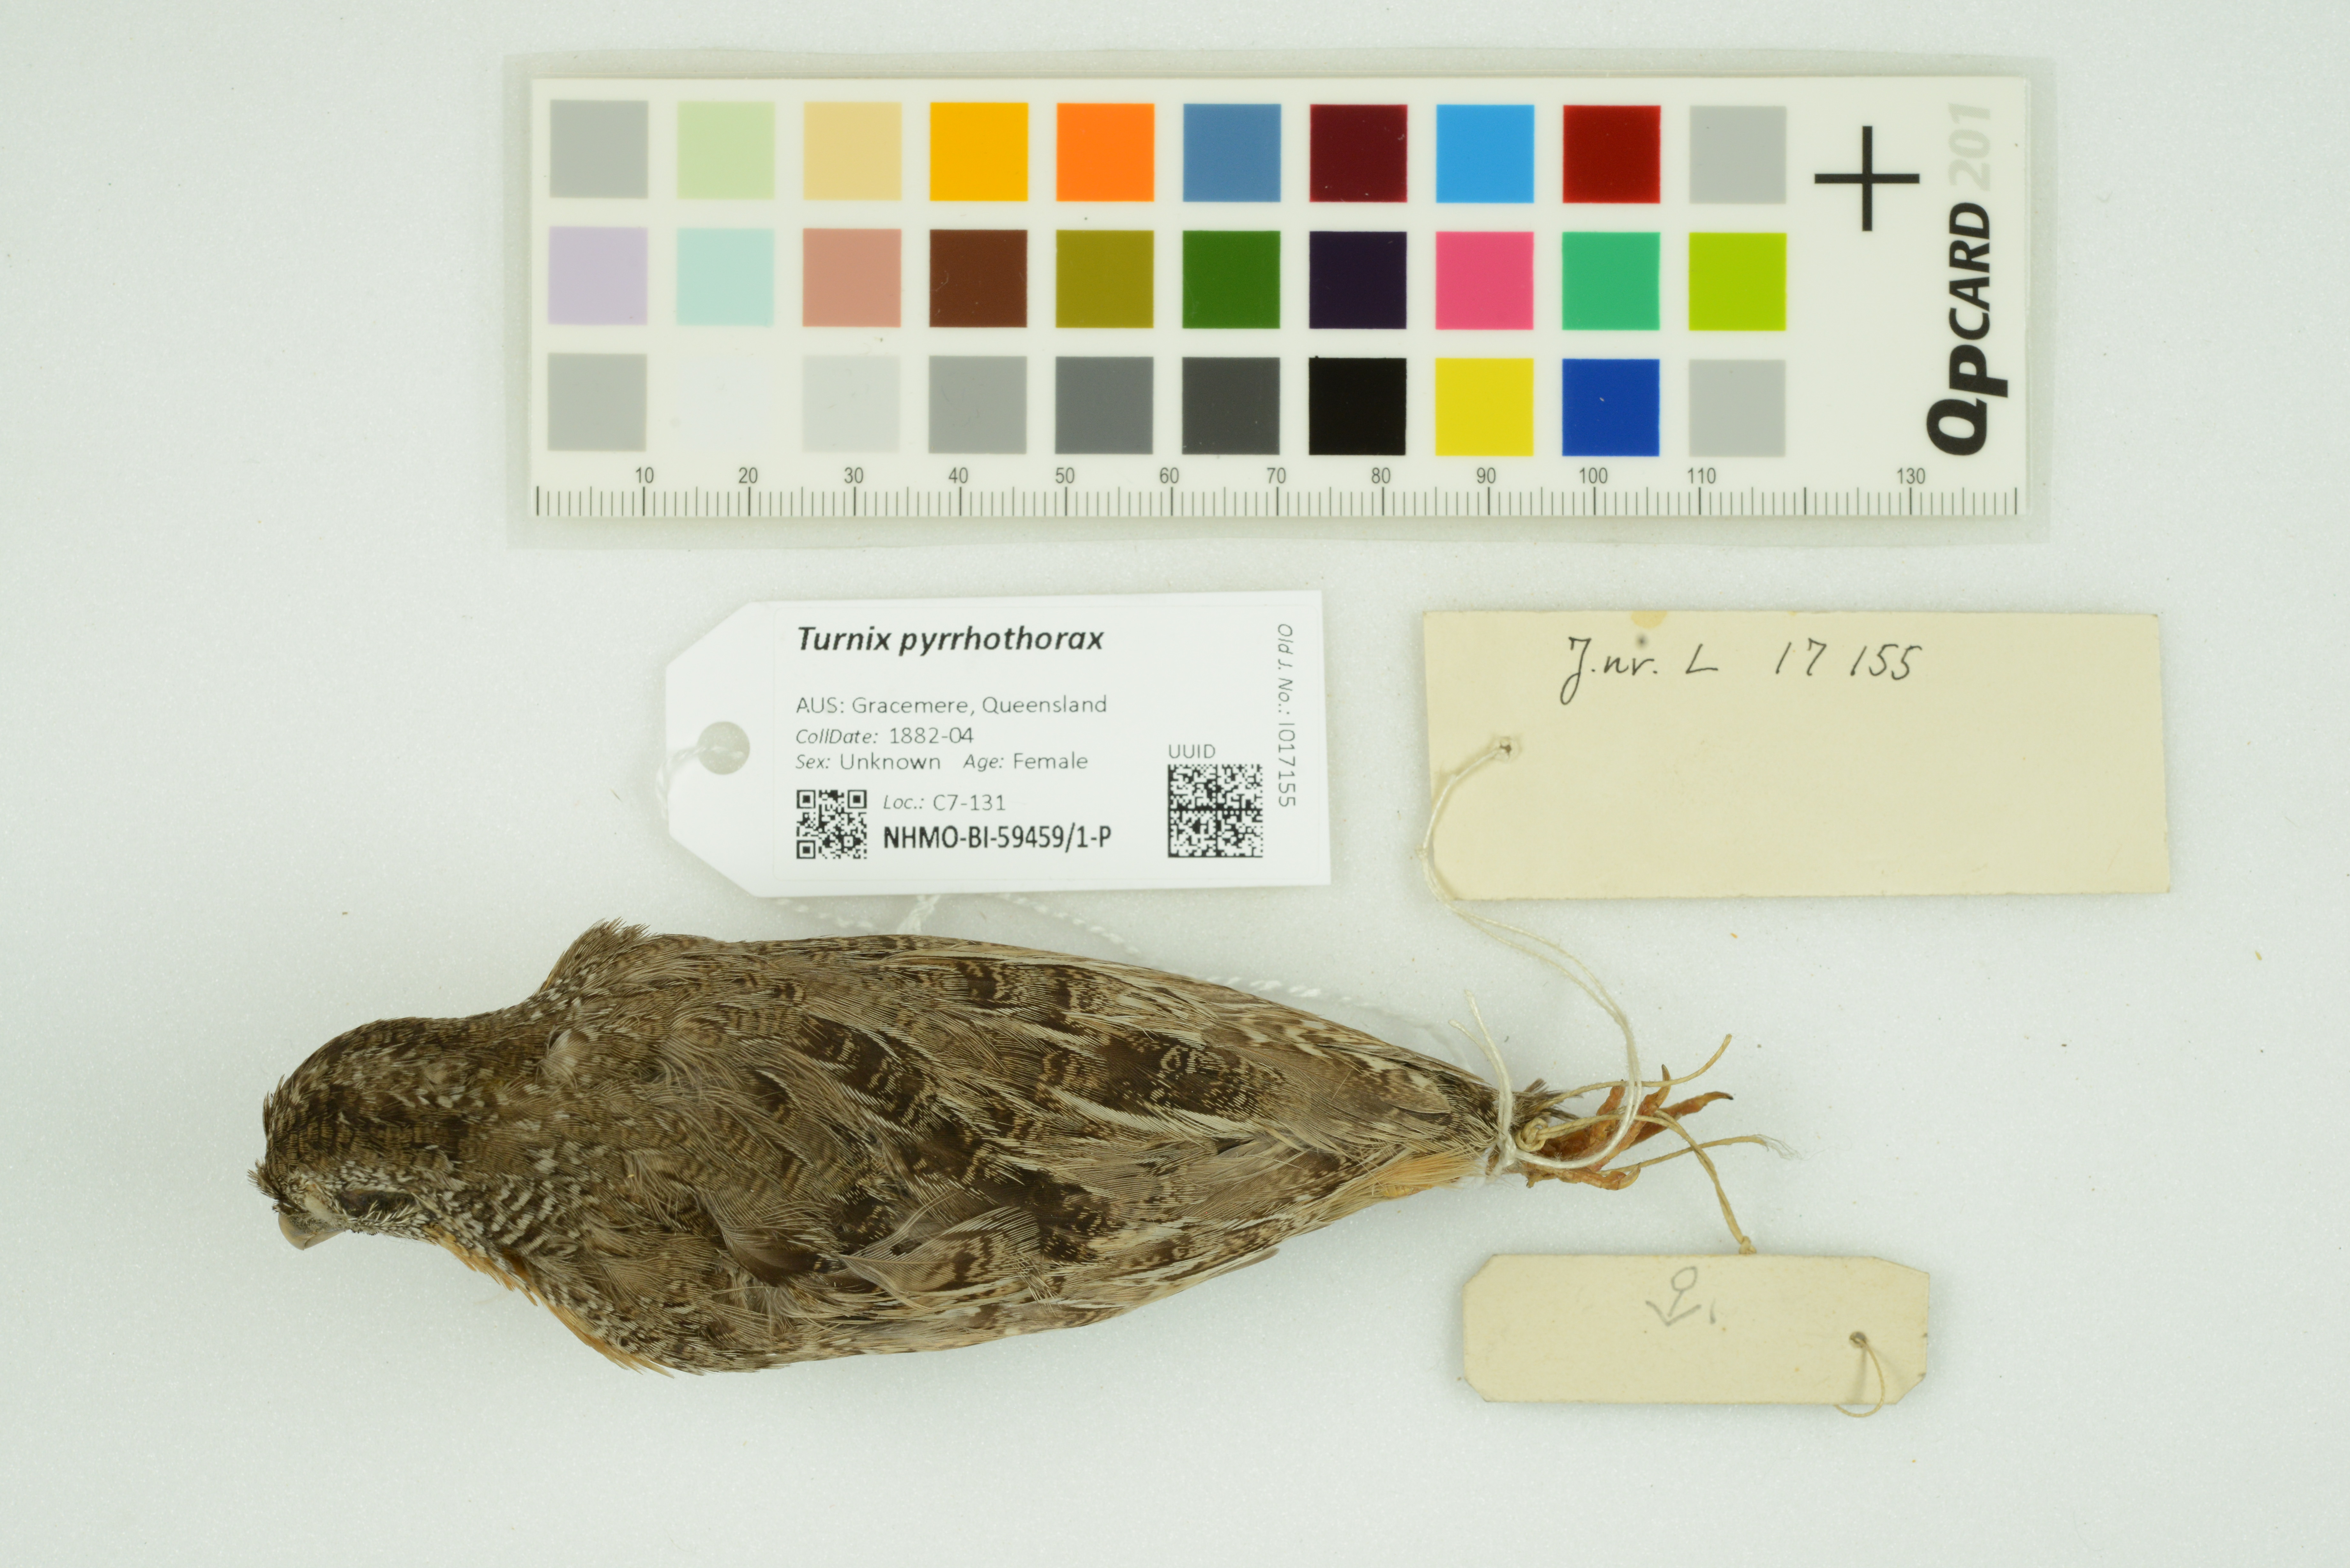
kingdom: Animalia
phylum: Chordata
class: Aves
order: Charadriiformes
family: Turnicidae
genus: Turnix
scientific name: Turnix pyrrhothorax
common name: Red-chested buttonquail
